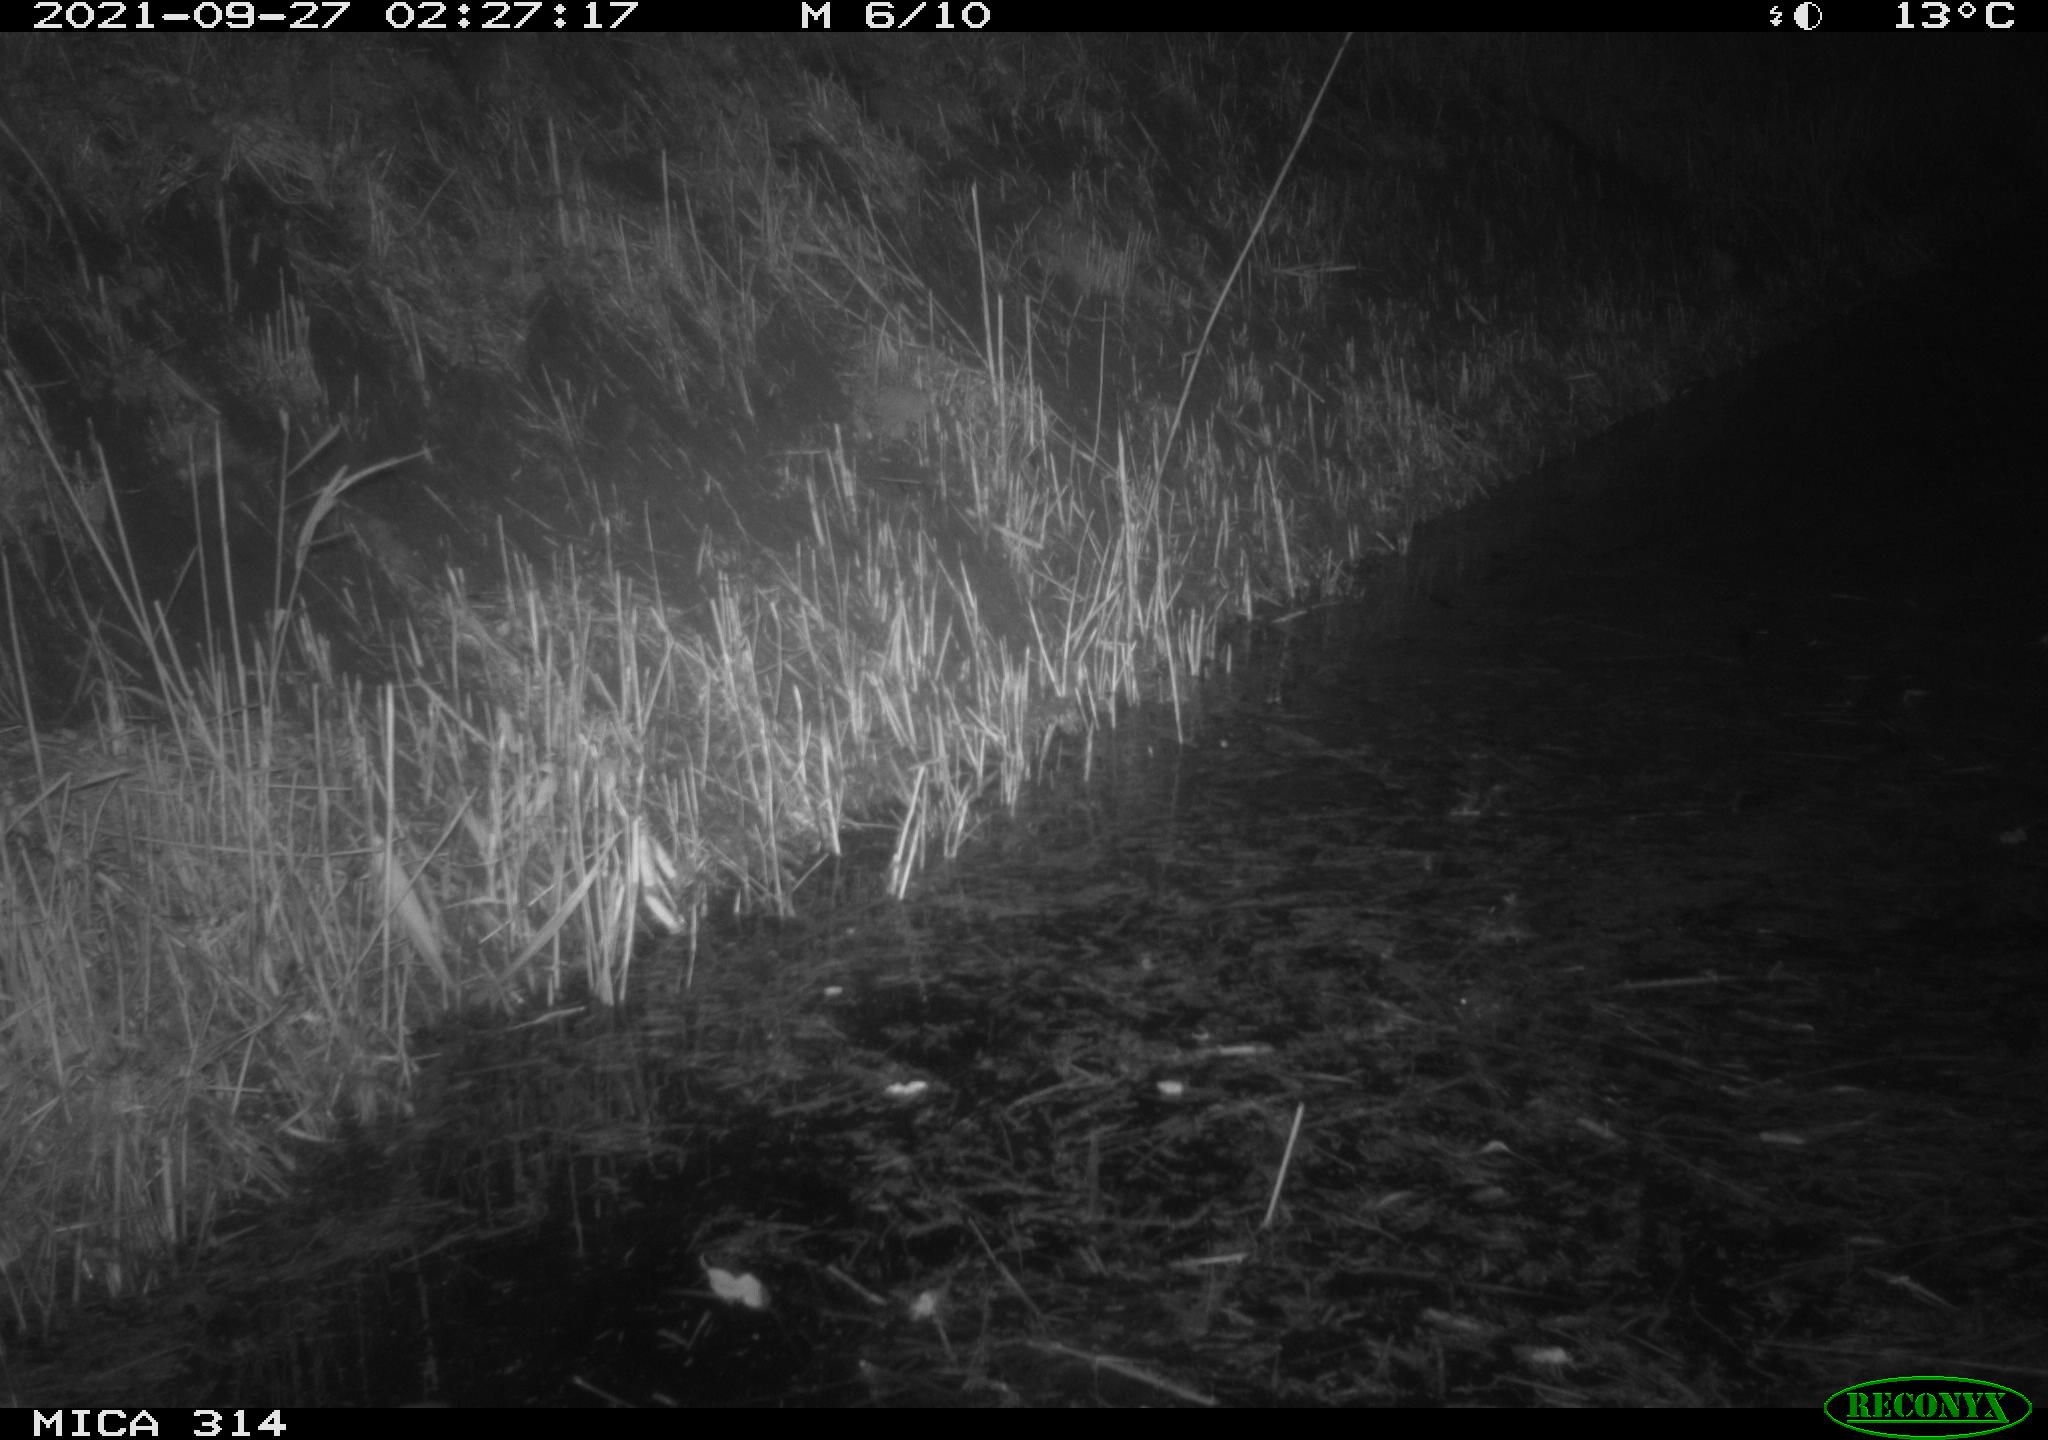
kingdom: Animalia
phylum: Chordata
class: Mammalia
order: Rodentia
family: Muridae
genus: Rattus
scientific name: Rattus norvegicus
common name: Brown rat
